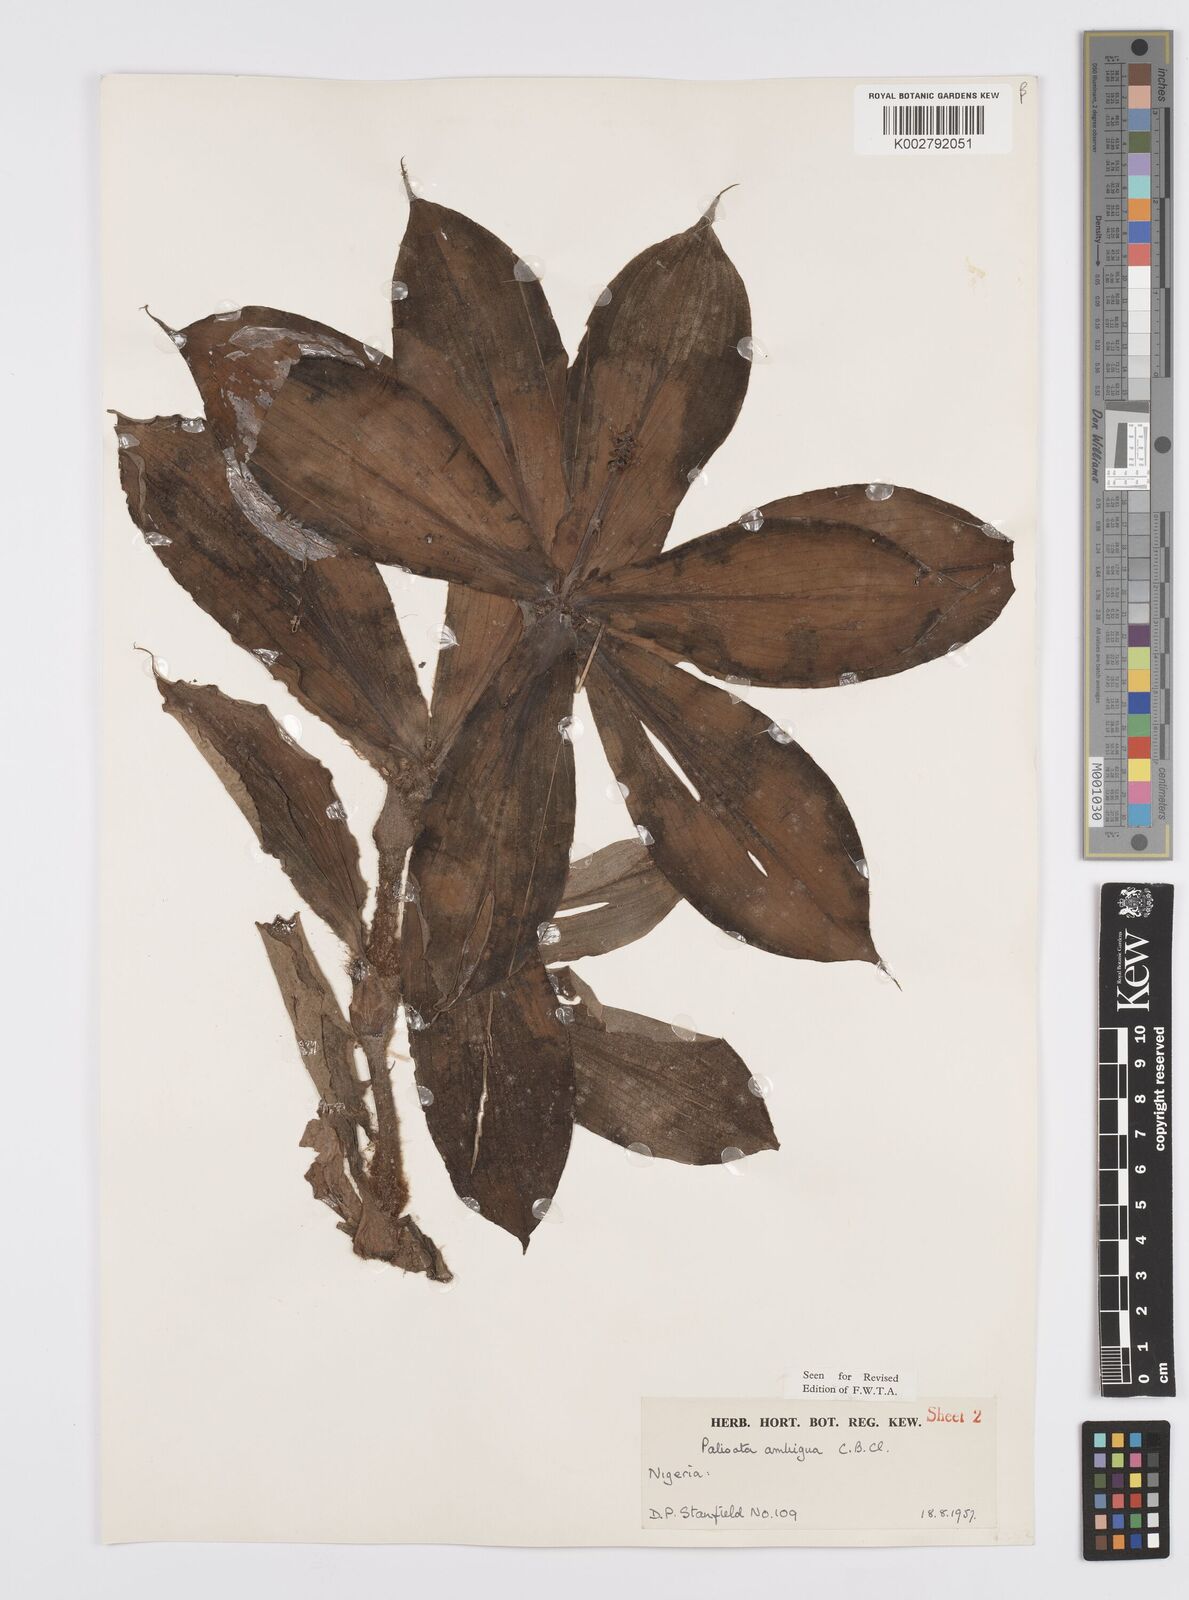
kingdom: Plantae
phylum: Tracheophyta
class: Liliopsida
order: Commelinales
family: Commelinaceae
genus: Palisota
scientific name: Palisota ambigua
